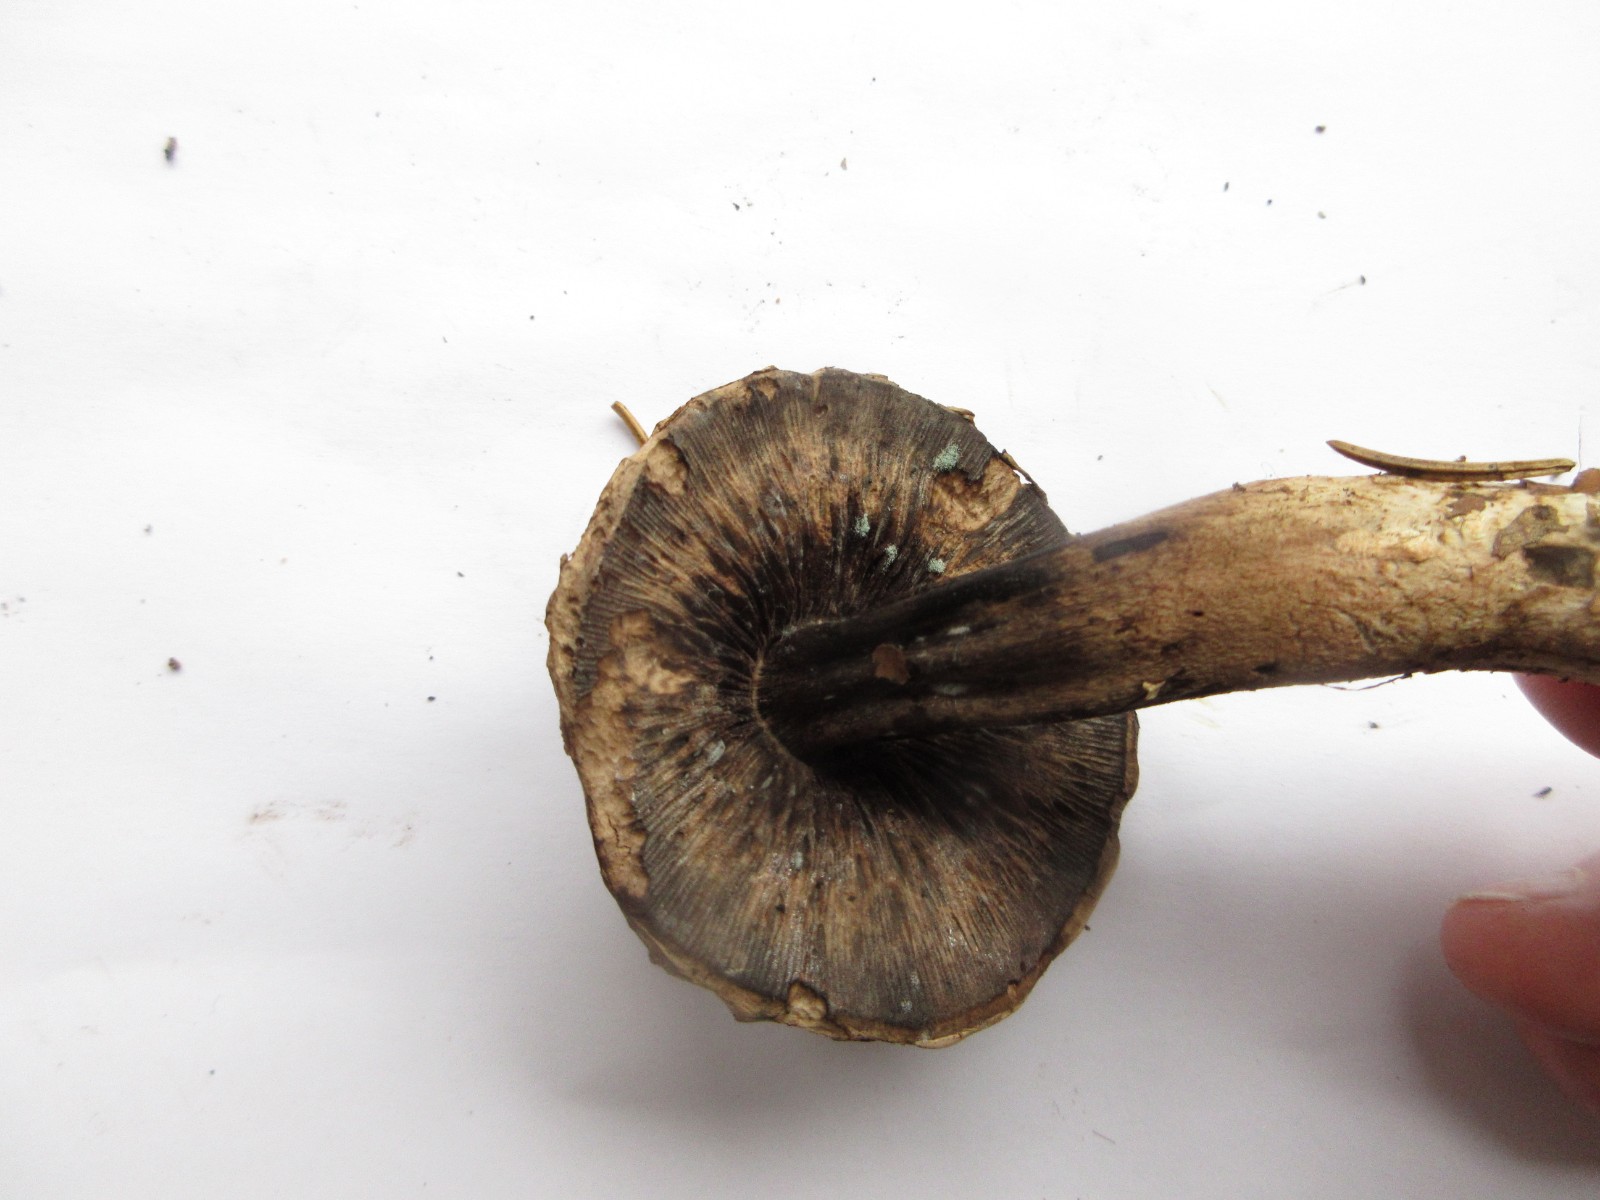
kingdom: Fungi
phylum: Ascomycota
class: Eurotiomycetes
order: Eurotiales
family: Aspergillaceae
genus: Penicillium
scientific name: Penicillium
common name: penselskimmel
